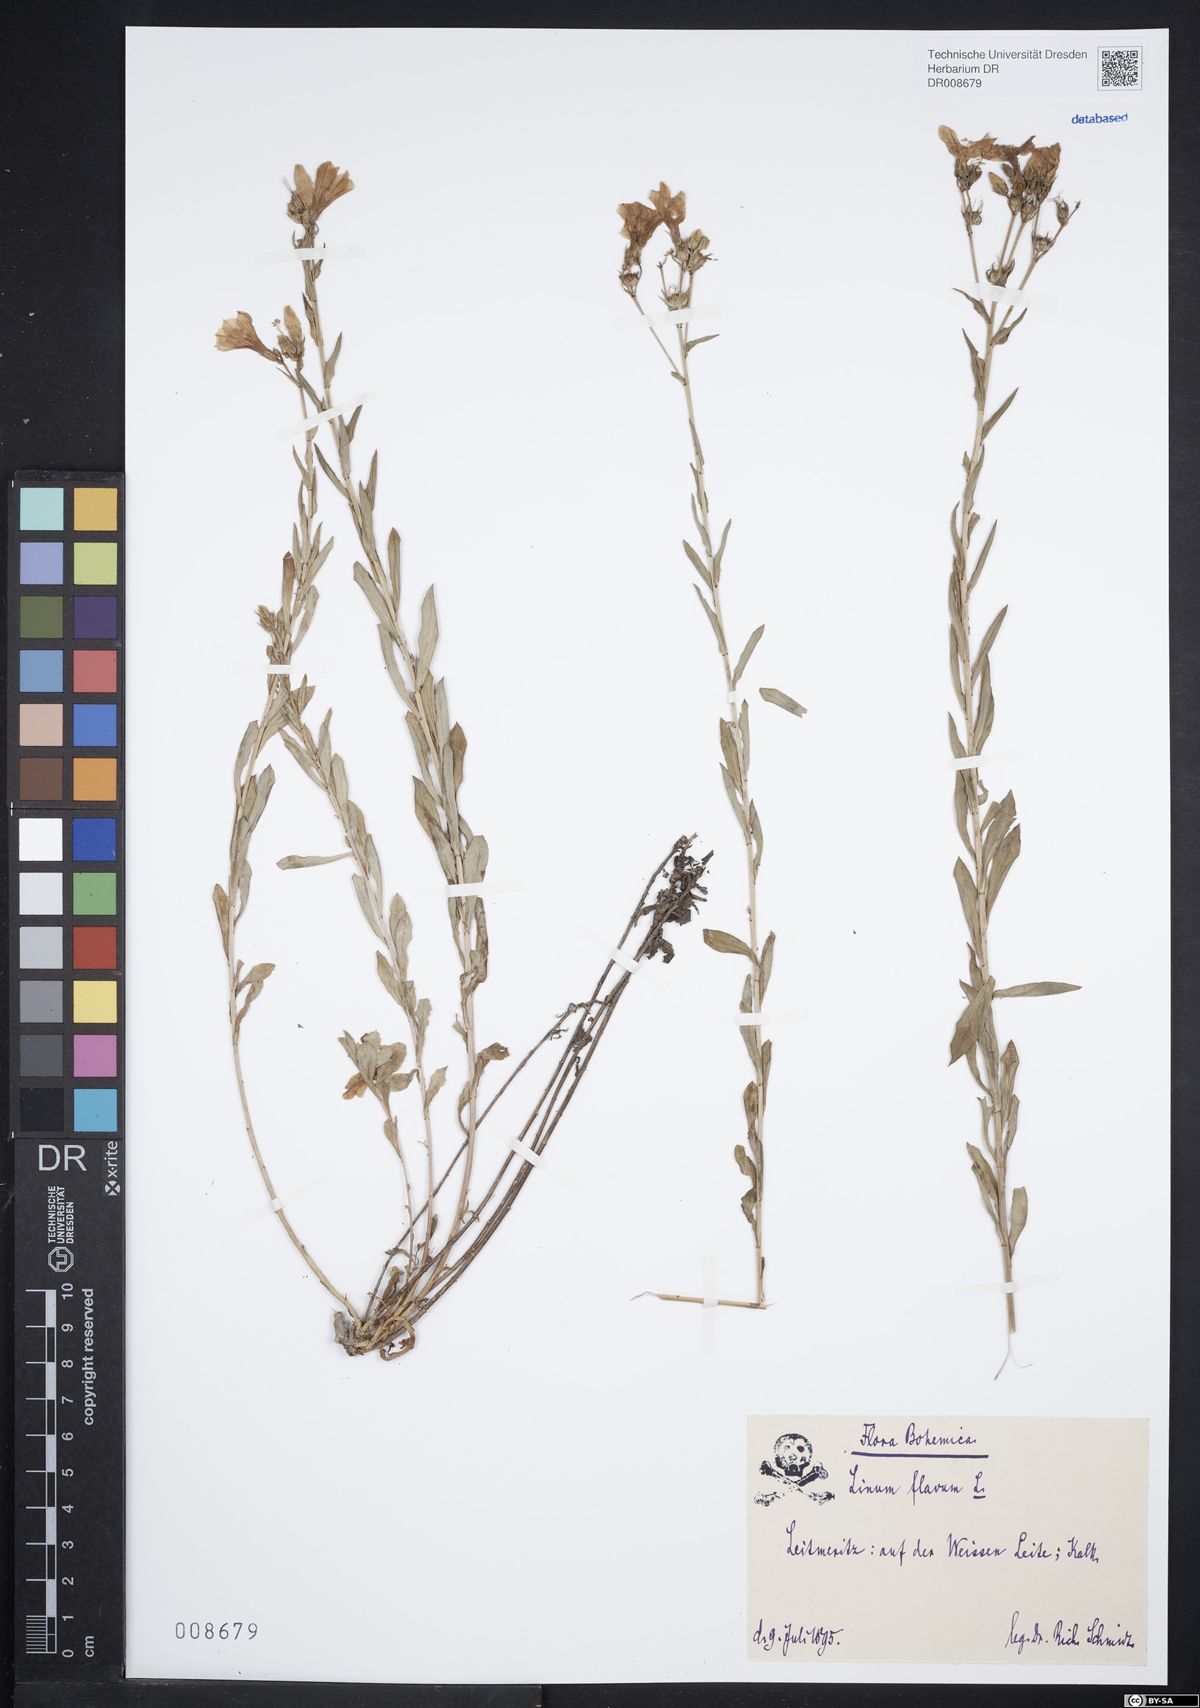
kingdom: Plantae
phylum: Tracheophyta
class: Magnoliopsida
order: Malpighiales
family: Linaceae
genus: Linum
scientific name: Linum flavum
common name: Yellow flax
